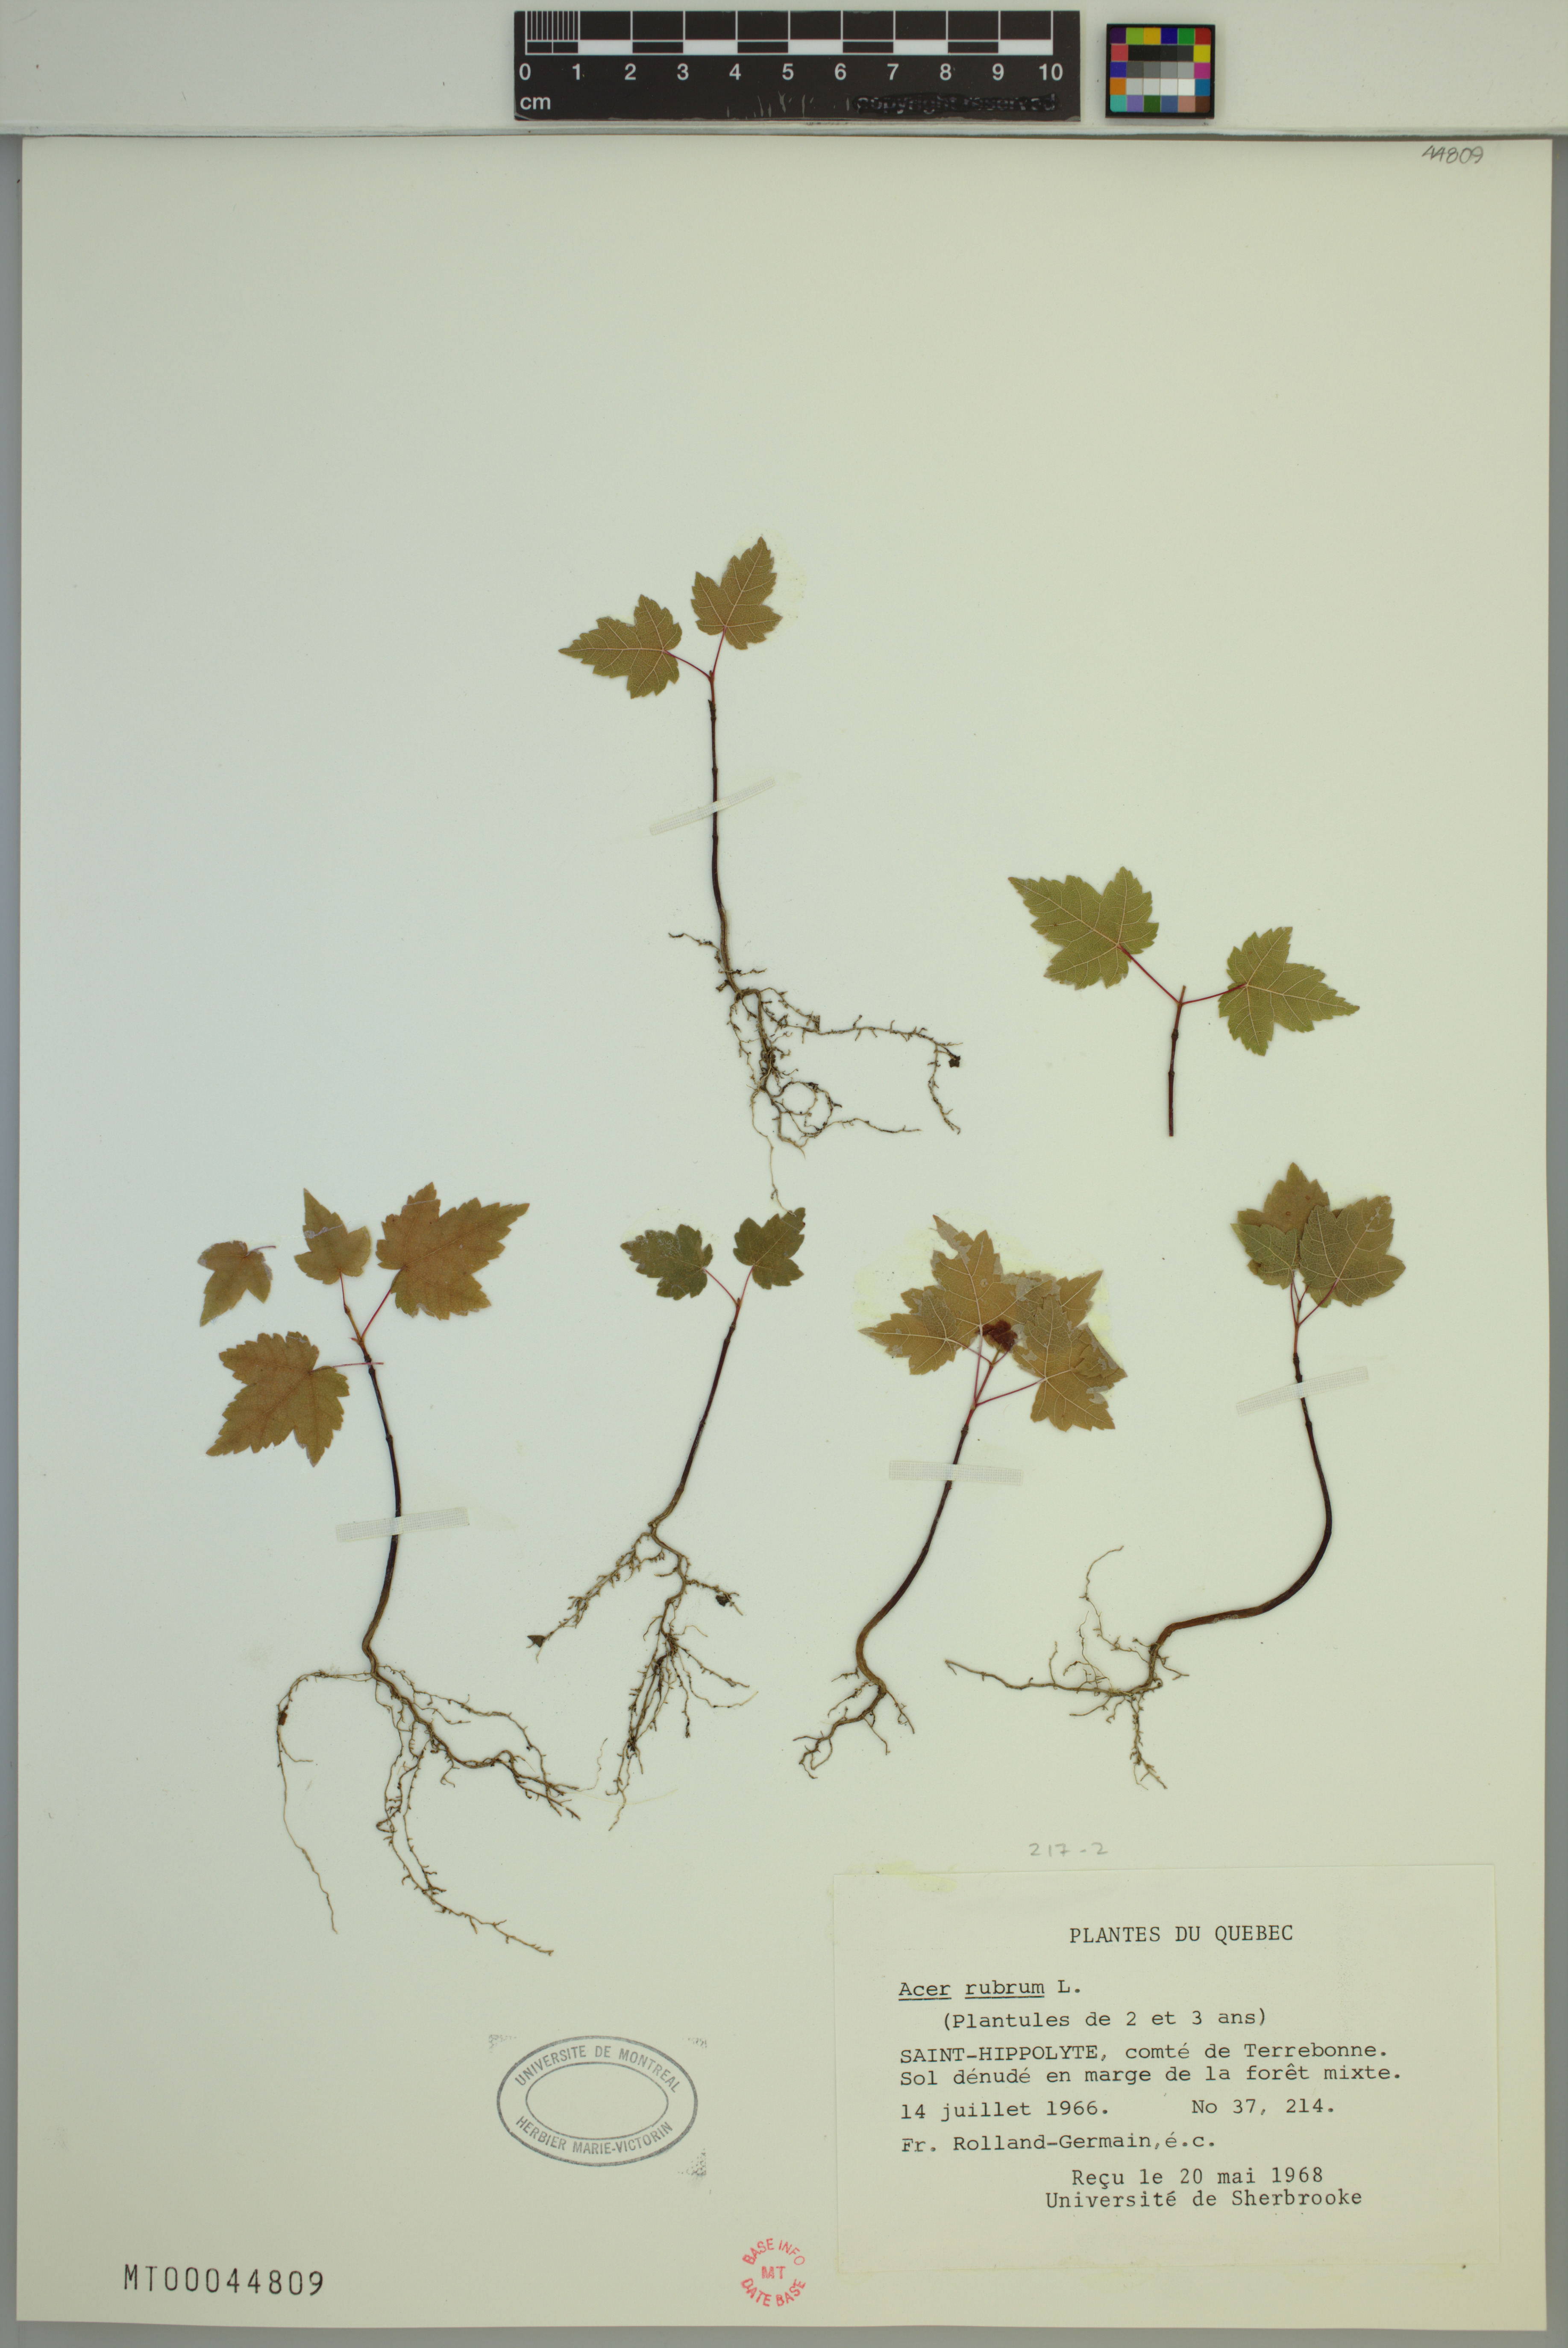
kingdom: Plantae
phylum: Tracheophyta
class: Magnoliopsida
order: Sapindales
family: Sapindaceae
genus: Acer
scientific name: Acer rubrum
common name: Red maple
